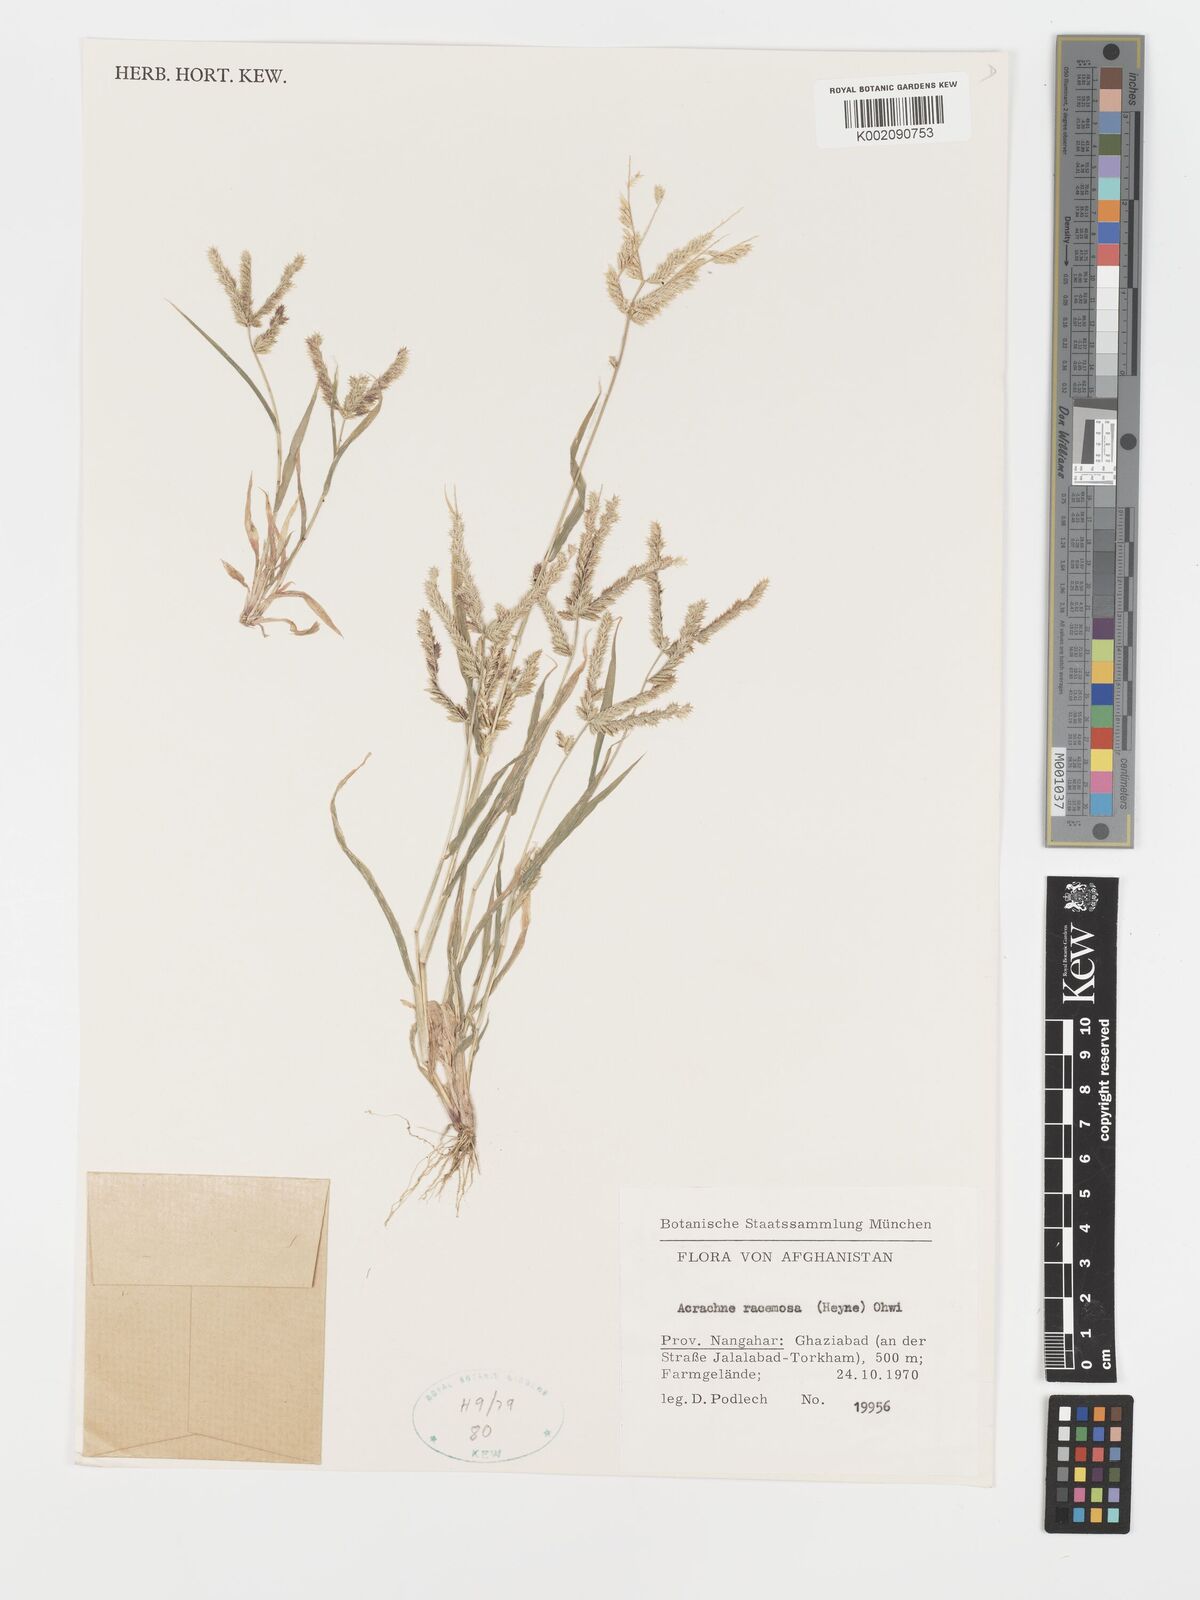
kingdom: Plantae
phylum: Tracheophyta
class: Liliopsida
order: Poales
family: Poaceae
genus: Acrachne
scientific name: Acrachne racemosa
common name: Goosegrass
